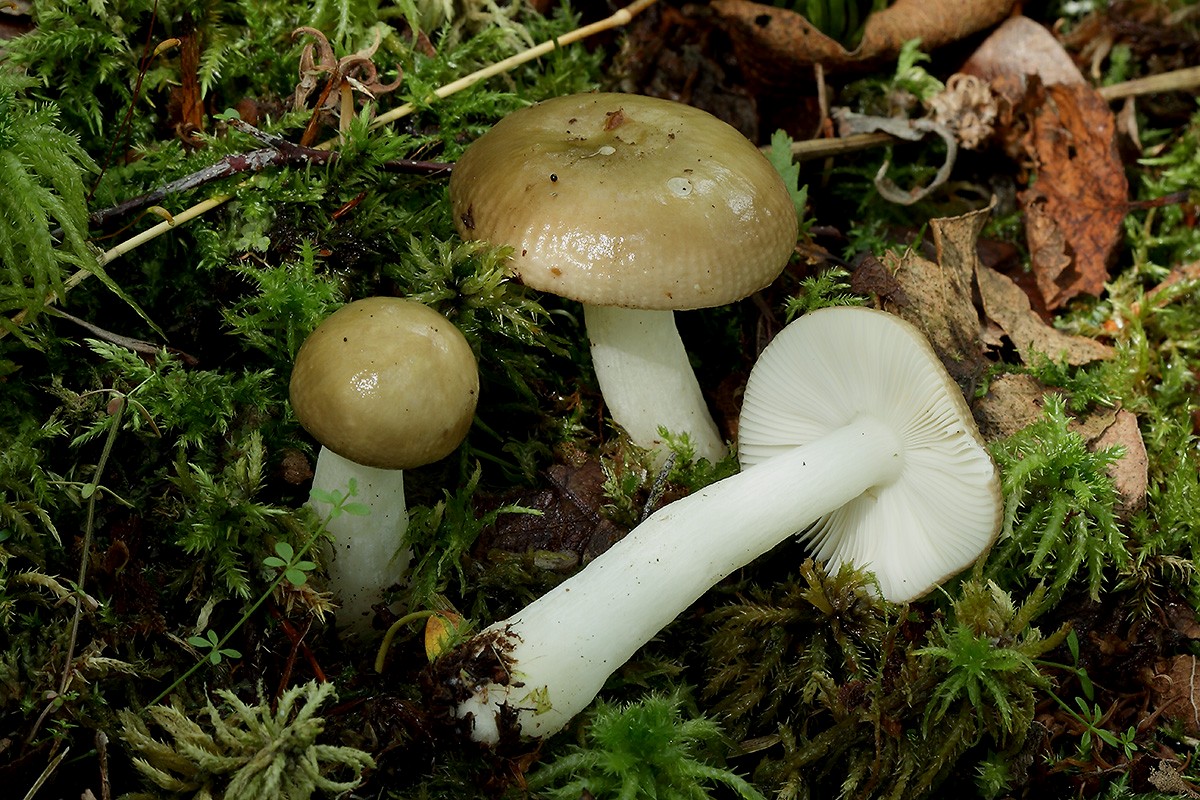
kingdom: Fungi
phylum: Basidiomycota
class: Agaricomycetes
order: Russulales
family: Russulaceae
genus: Russula
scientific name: Russula
